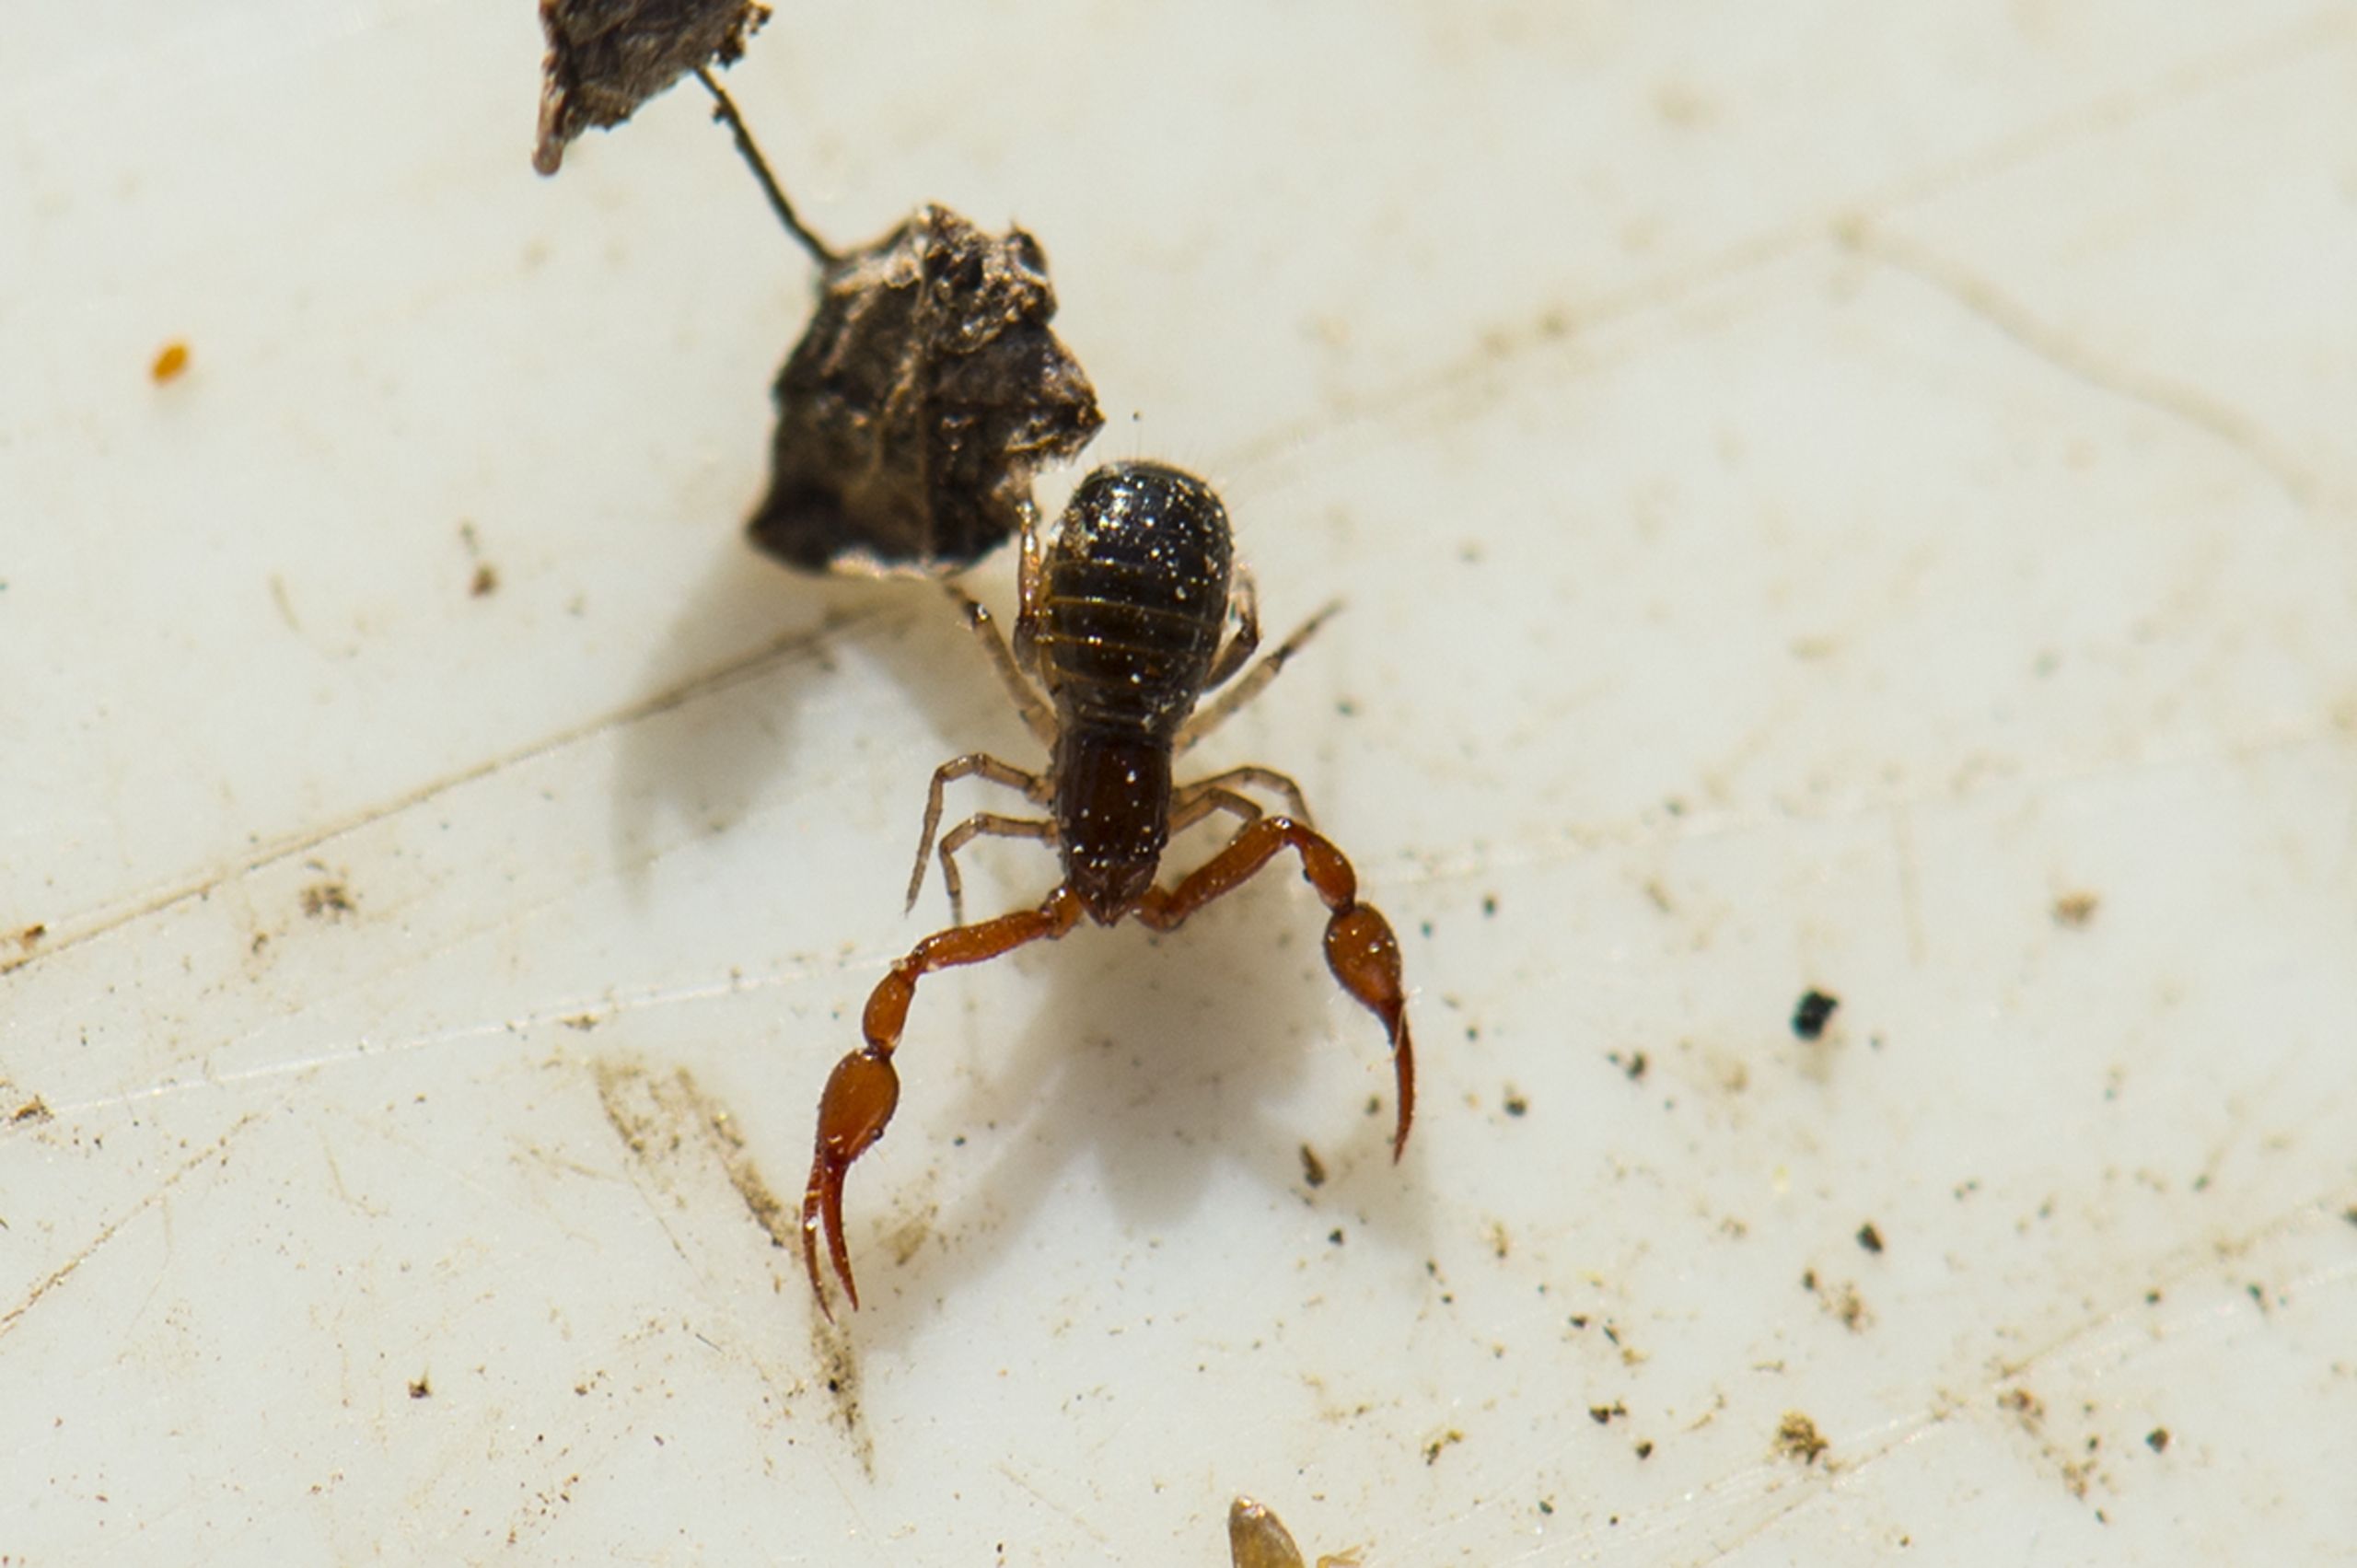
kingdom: Animalia
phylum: Arthropoda
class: Arachnida
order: Pseudoscorpiones
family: Neobisiidae
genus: Neobisium
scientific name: Neobisium carcinoides
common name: Almindelig mosskorpion
